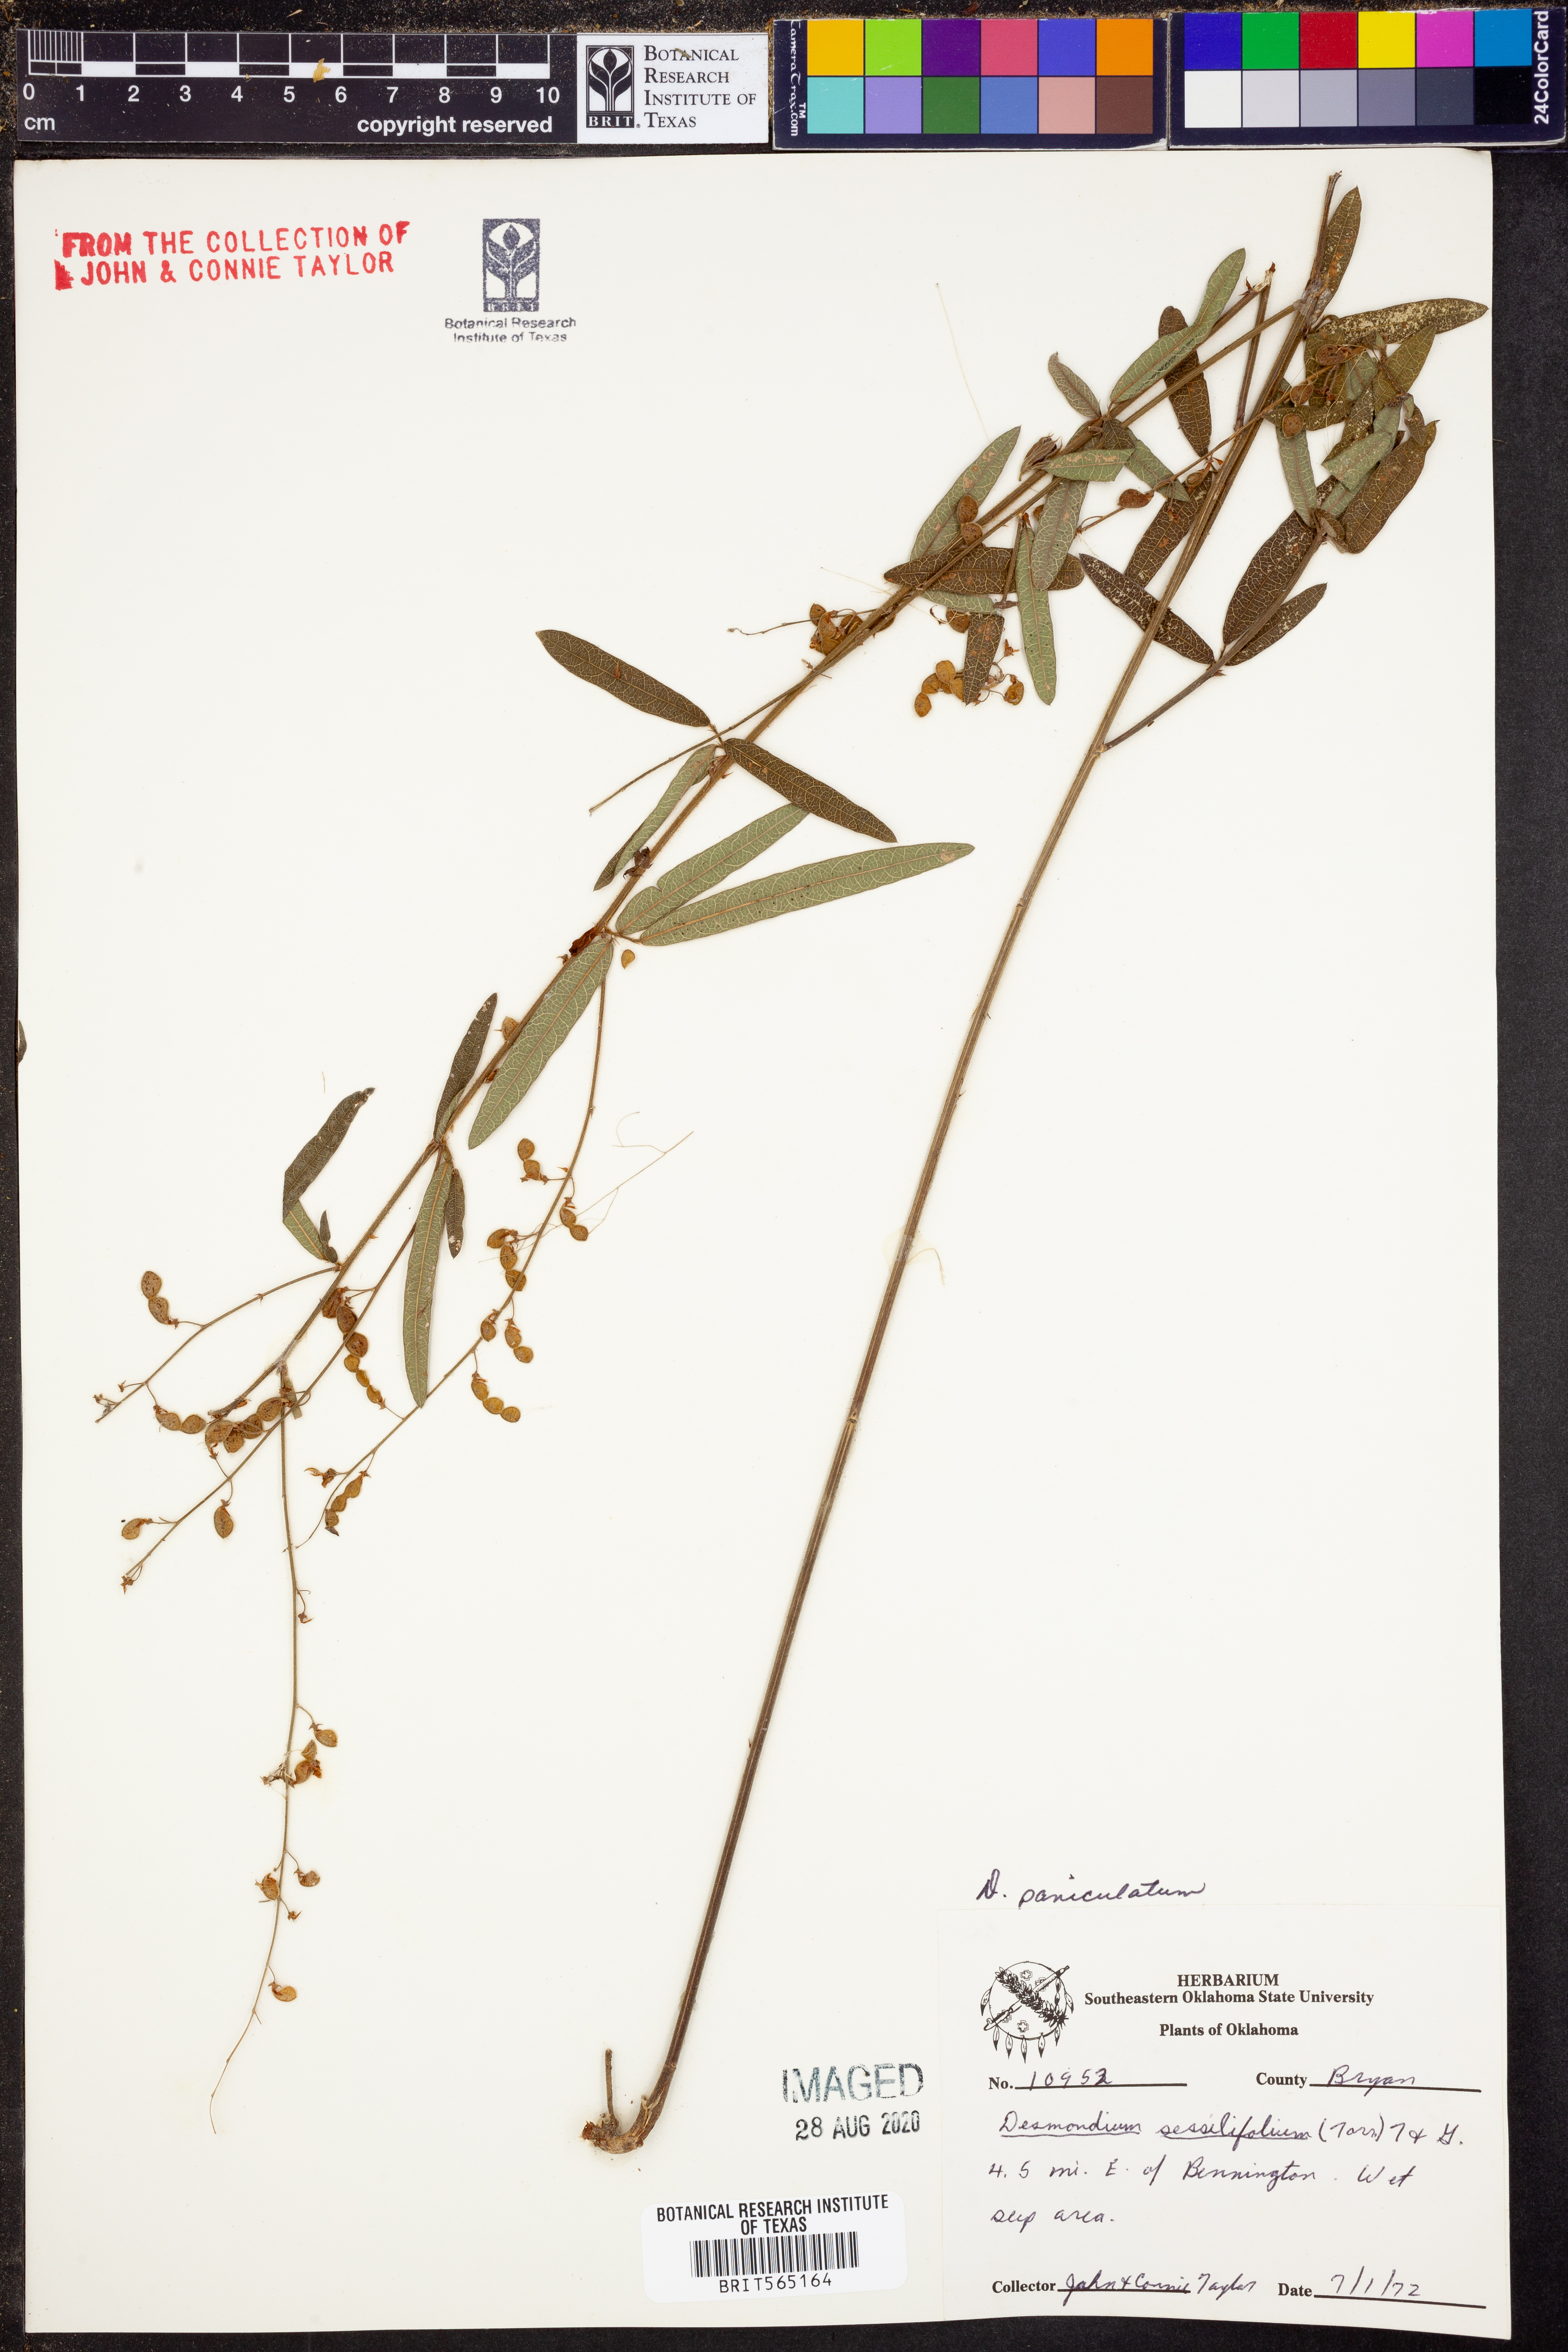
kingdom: Plantae
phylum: Tracheophyta
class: Magnoliopsida
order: Fabales
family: Fabaceae
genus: Desmodium
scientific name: Desmodium paniculatum
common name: Panicled tick-clover
